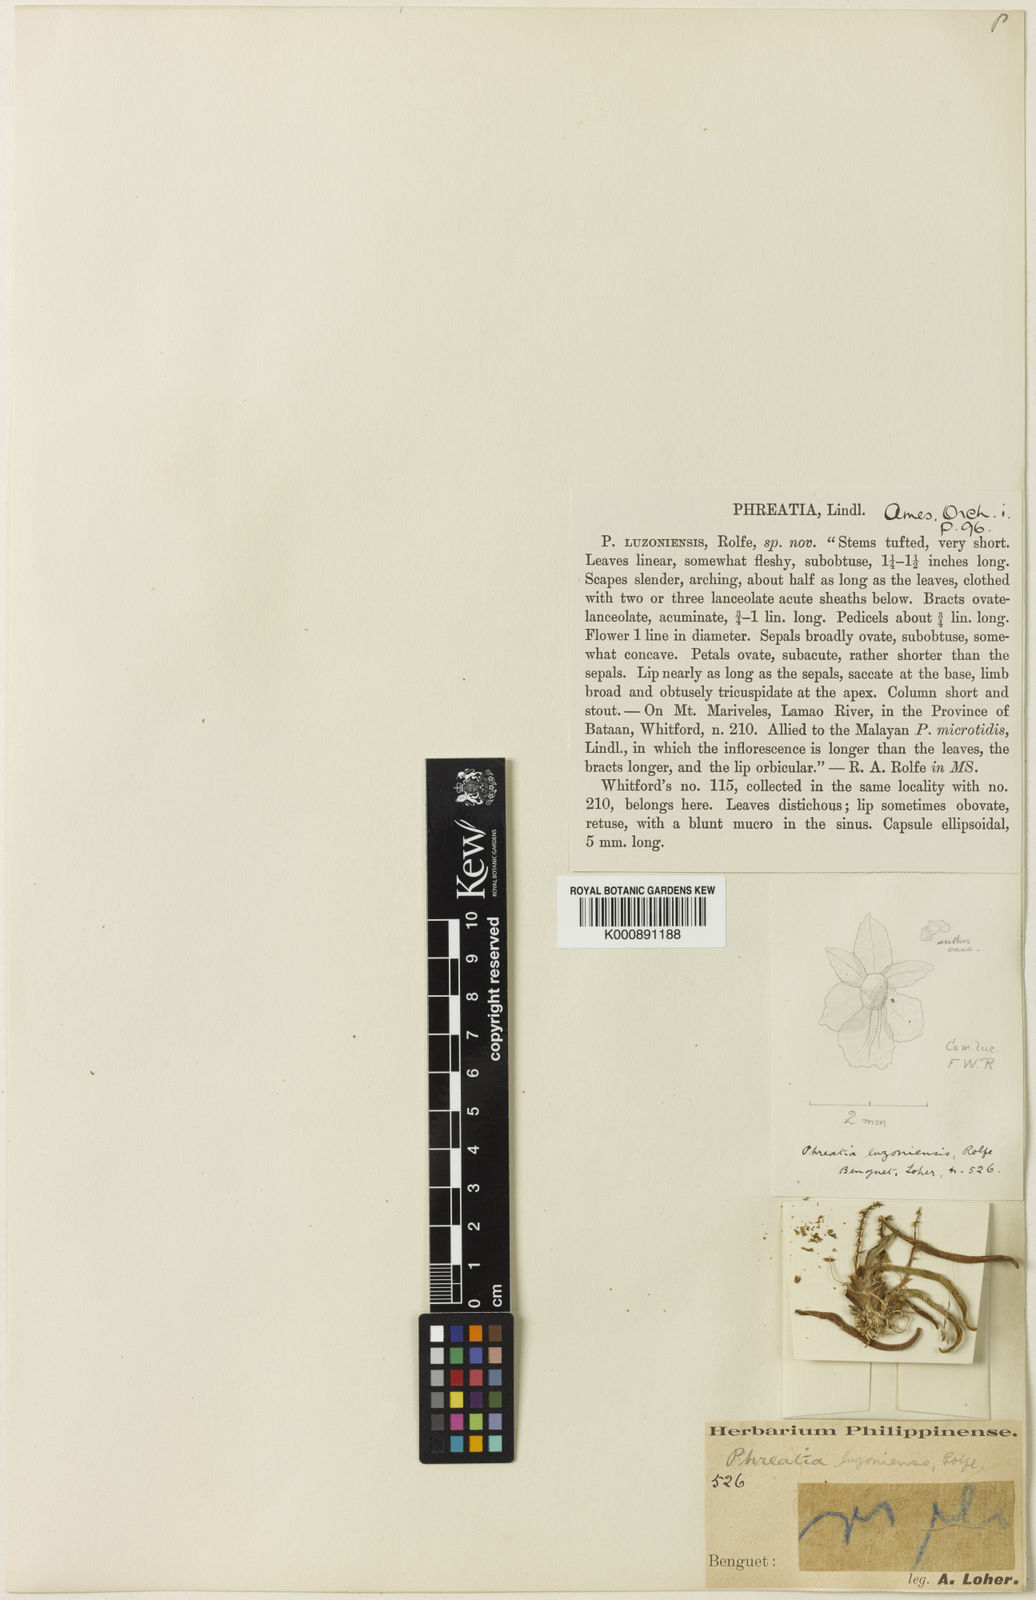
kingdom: Plantae
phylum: Tracheophyta
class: Liliopsida
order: Asparagales
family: Orchidaceae
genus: Phreatia
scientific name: Phreatia
